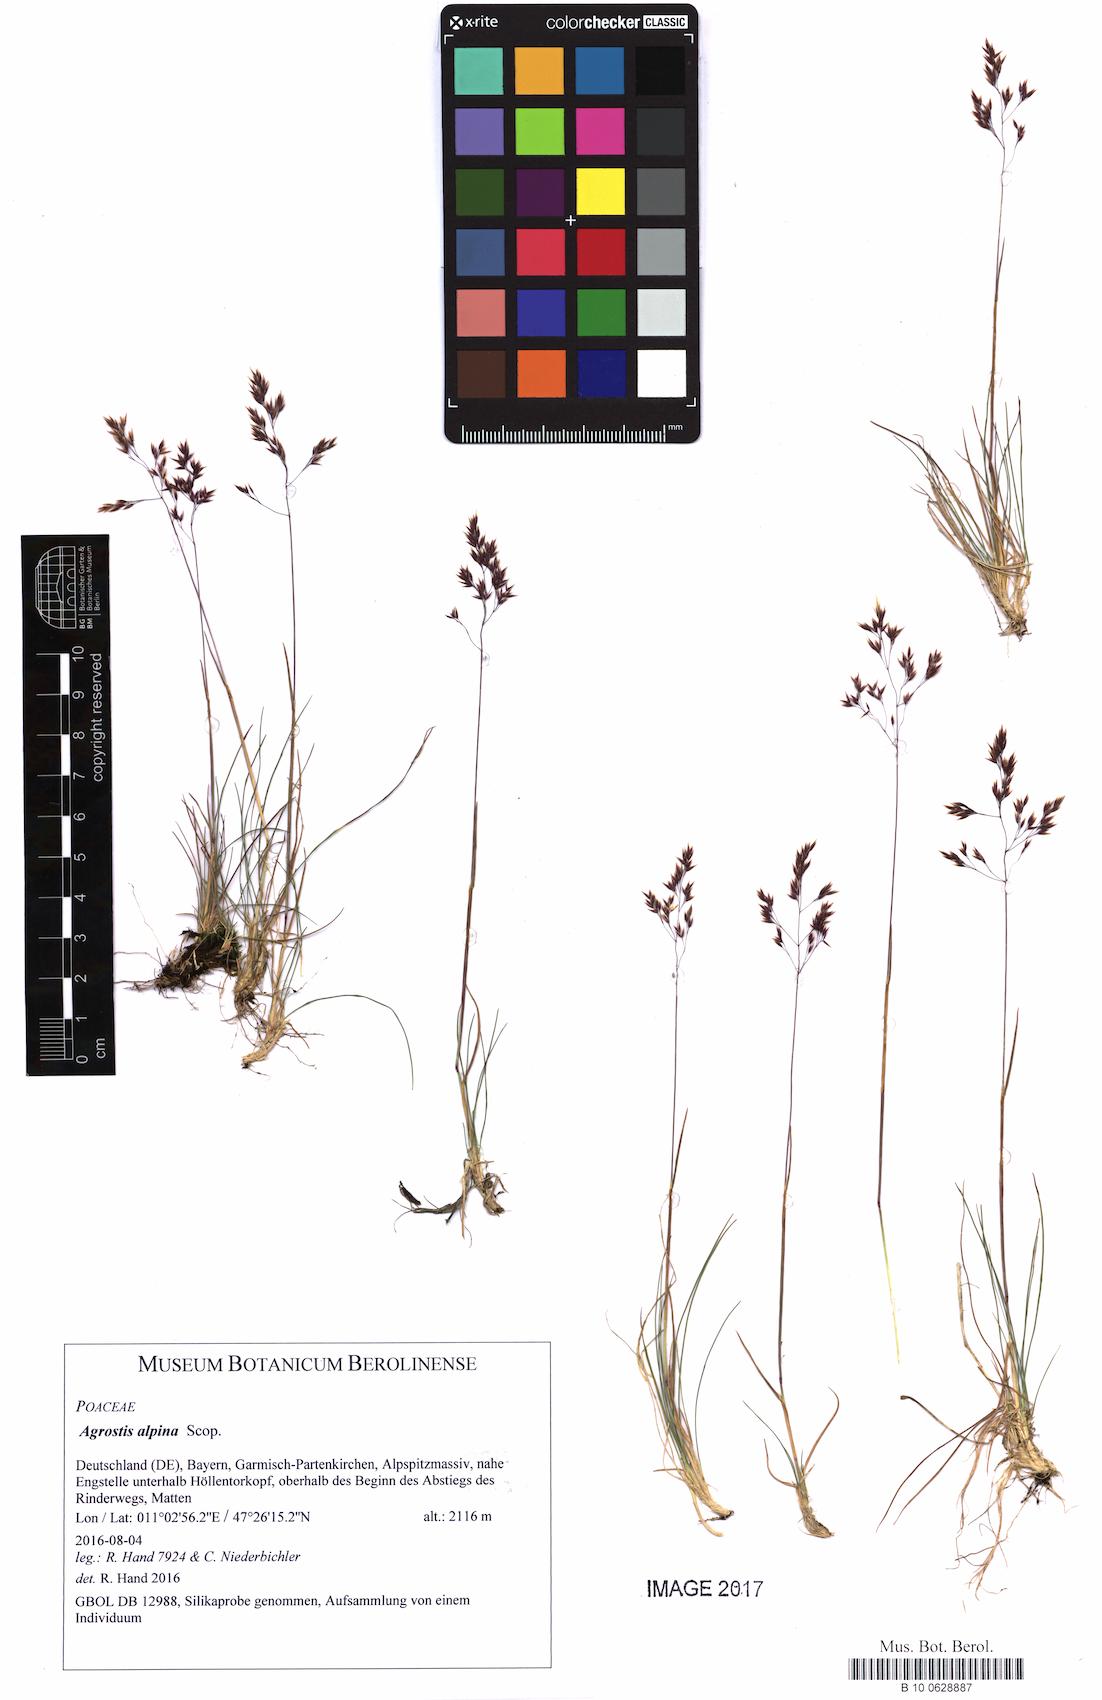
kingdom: Plantae
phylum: Tracheophyta
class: Liliopsida
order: Poales
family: Poaceae
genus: Alpagrostis
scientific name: Alpagrostis alpina
